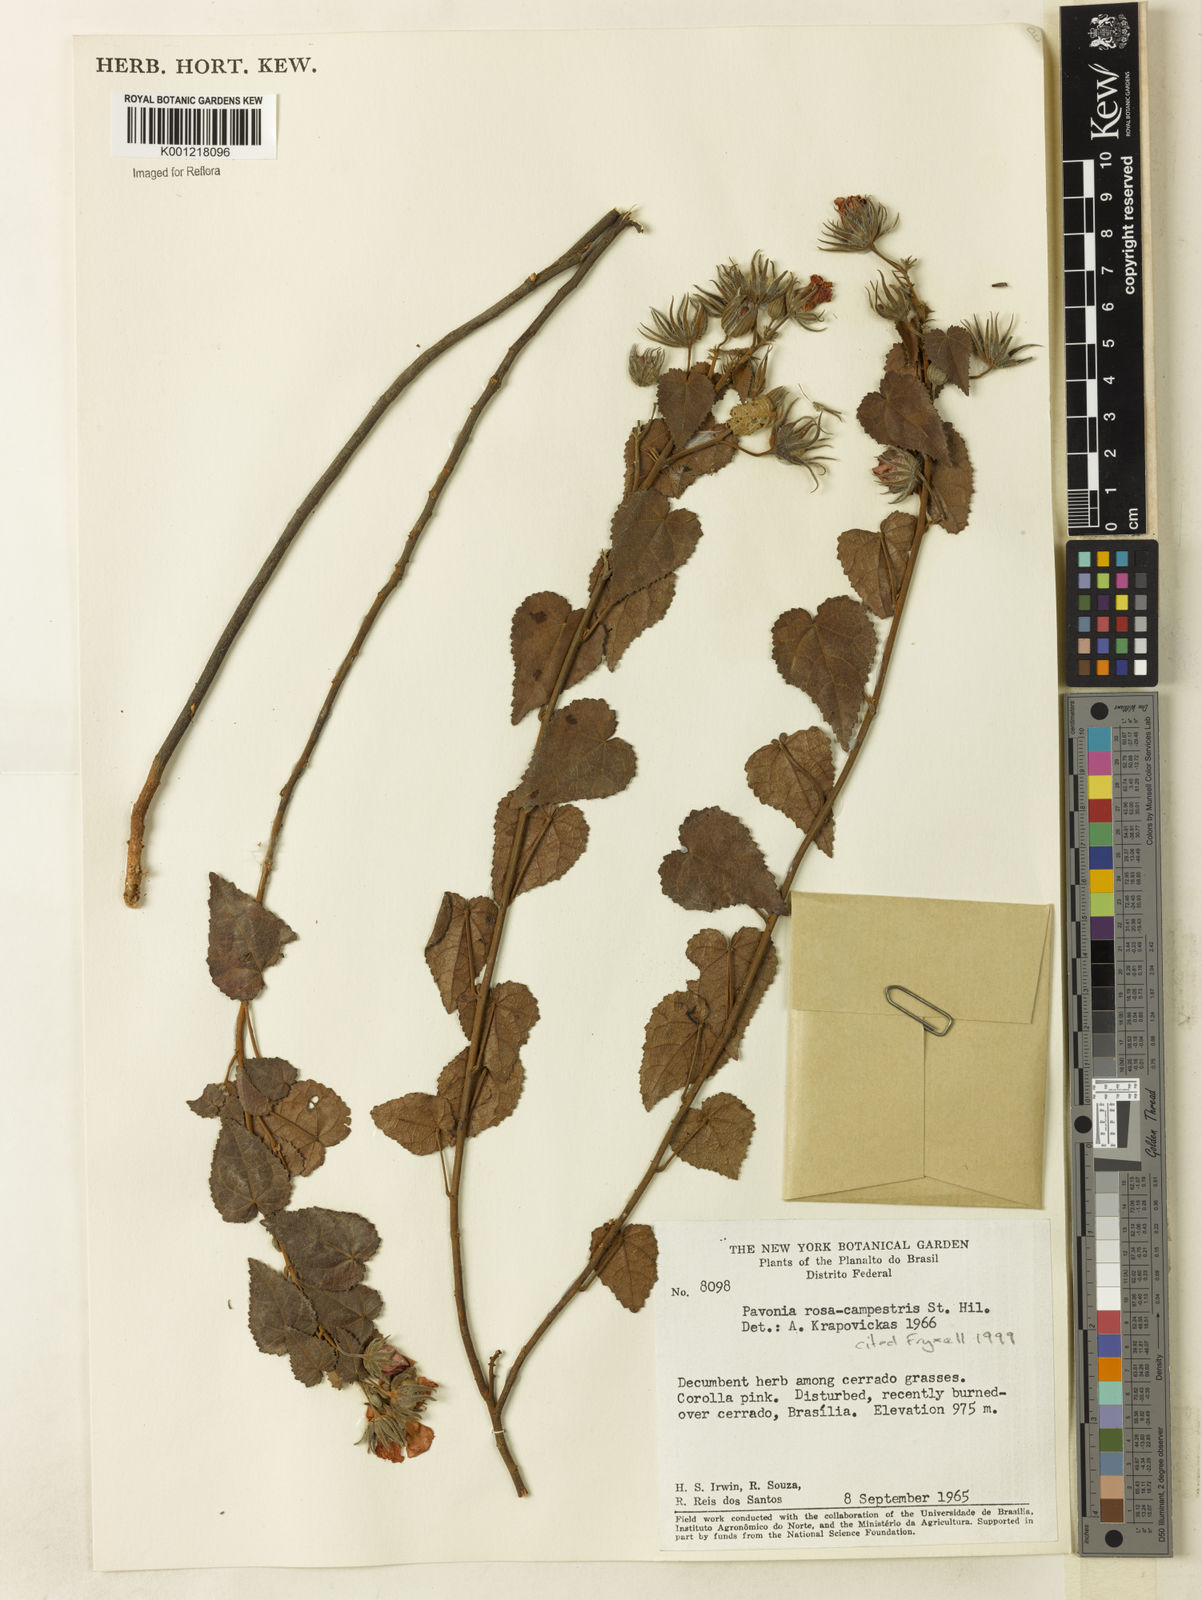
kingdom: Plantae
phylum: Tracheophyta
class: Magnoliopsida
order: Malvales
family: Malvaceae
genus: Pavonia
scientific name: Pavonia rosa-campestris
